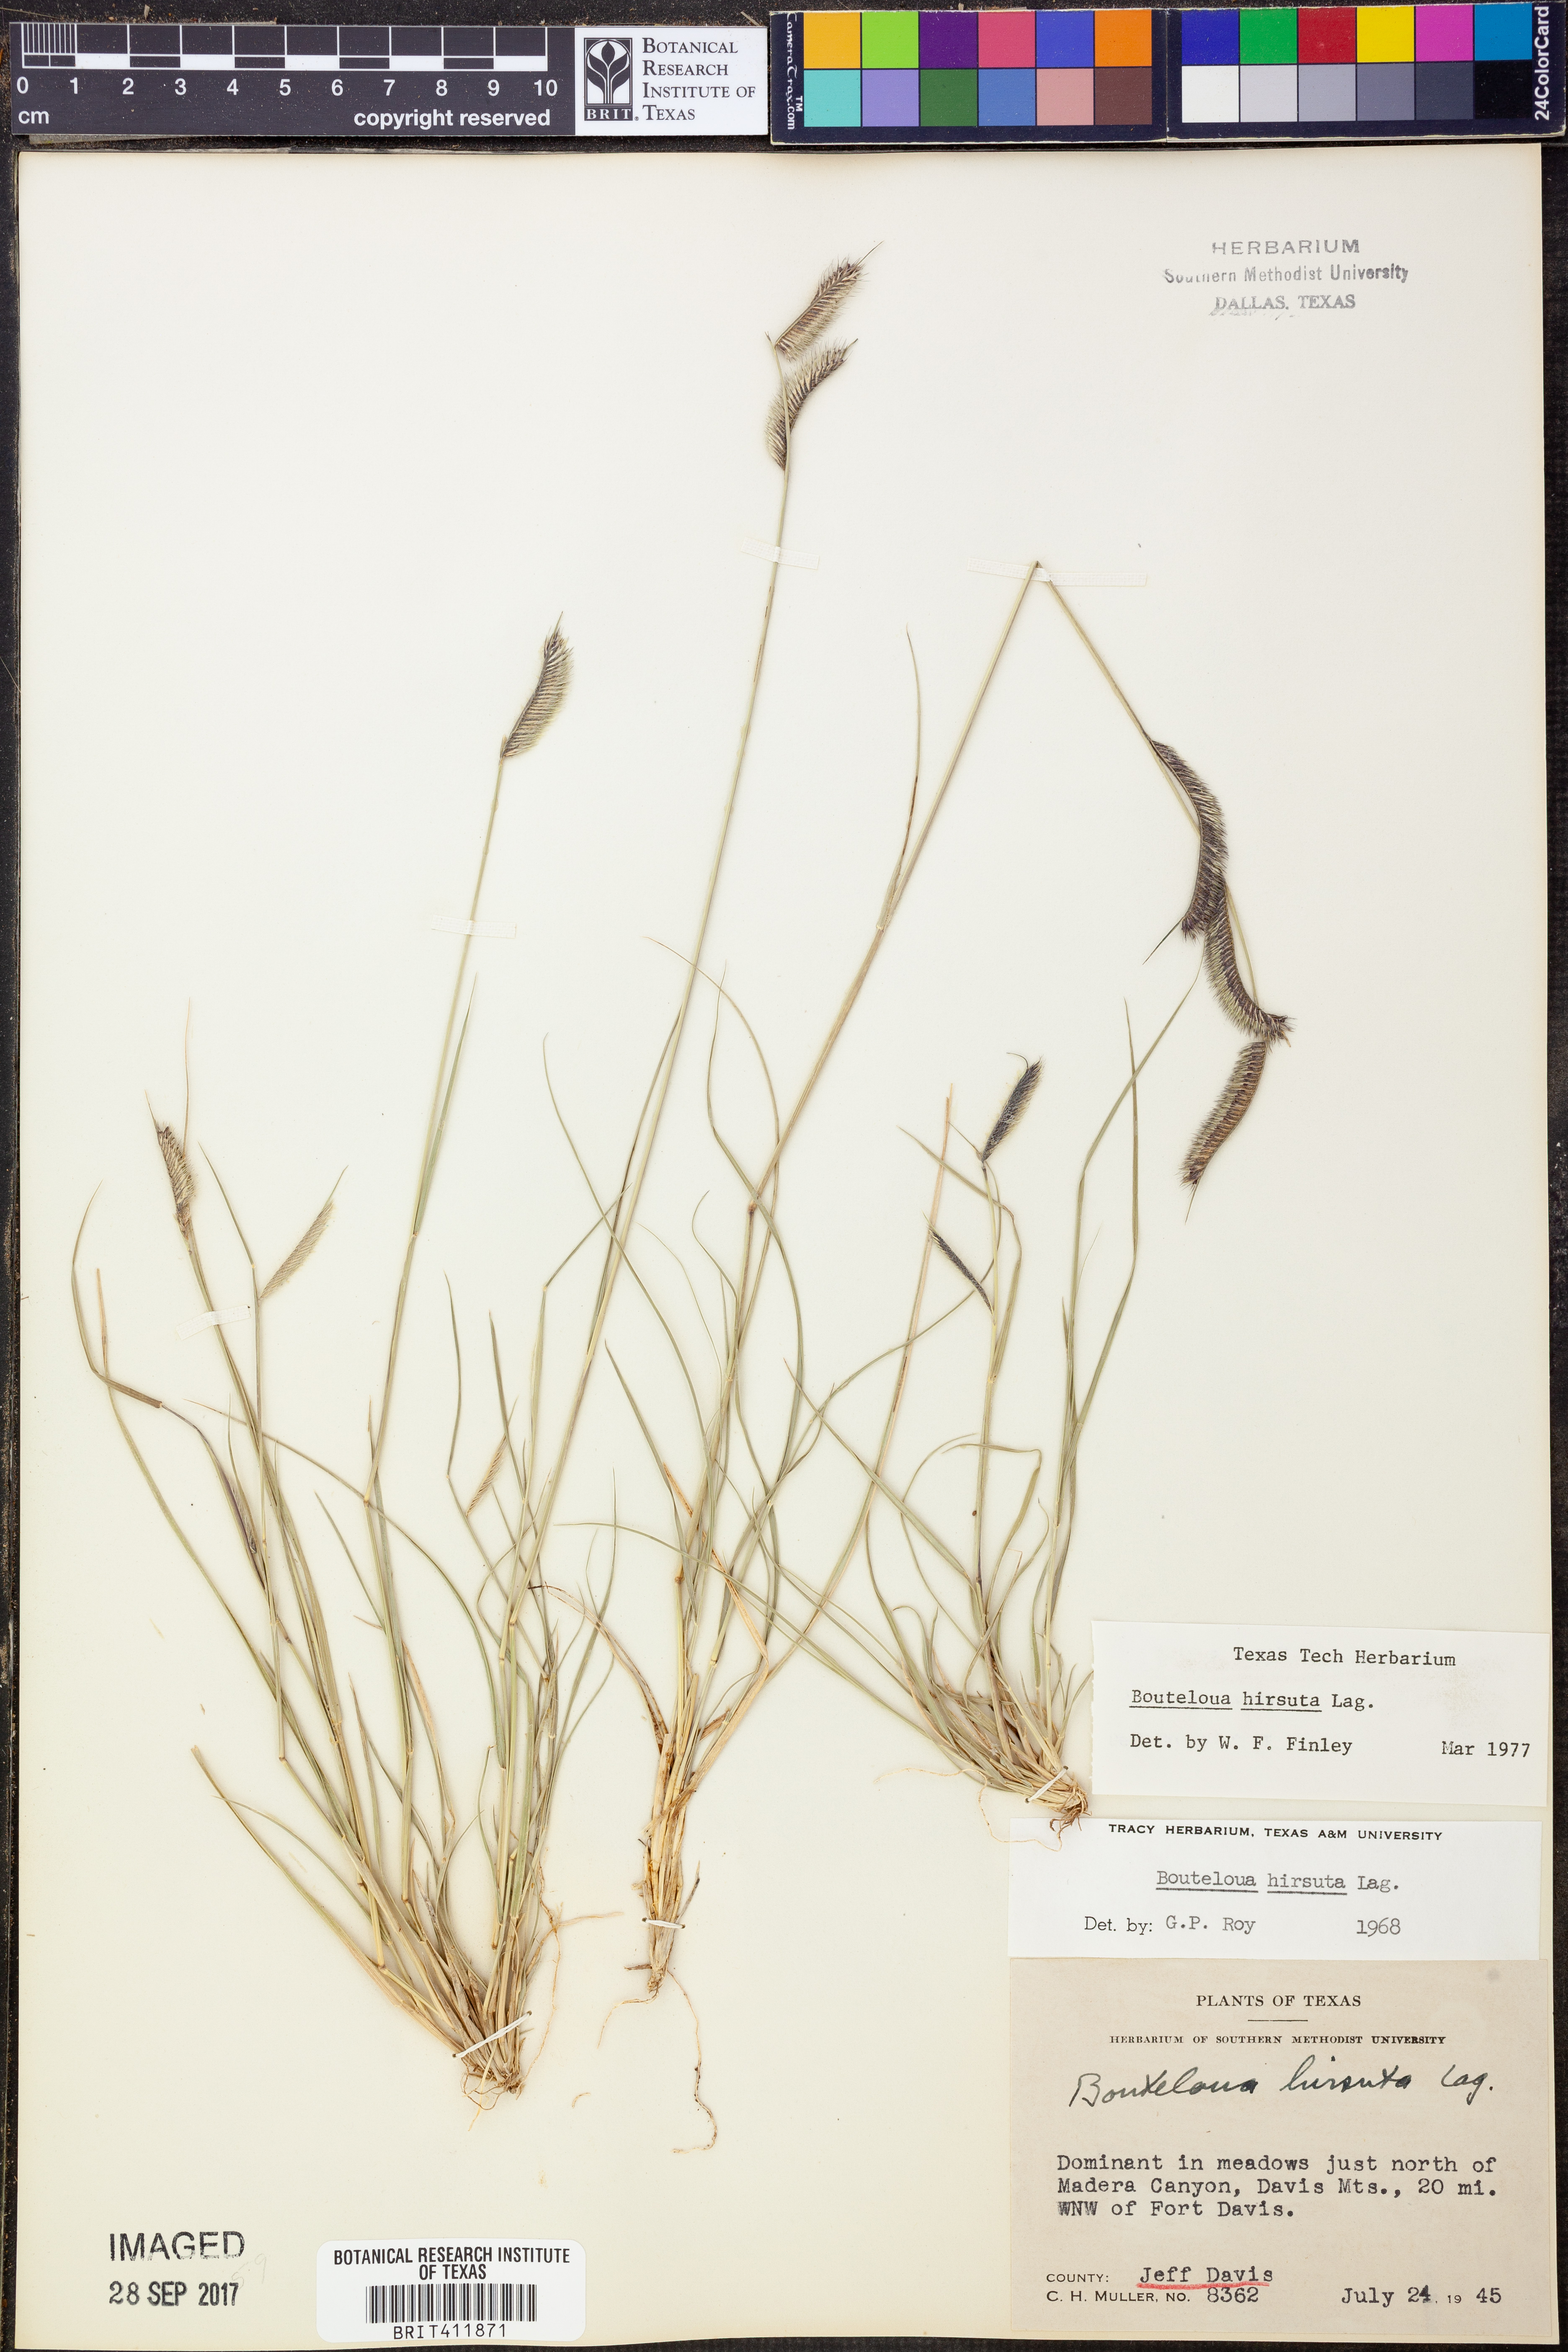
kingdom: Plantae
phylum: Tracheophyta
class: Liliopsida
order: Poales
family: Poaceae
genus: Bouteloua
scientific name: Bouteloua hirsuta
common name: Hairy grama
